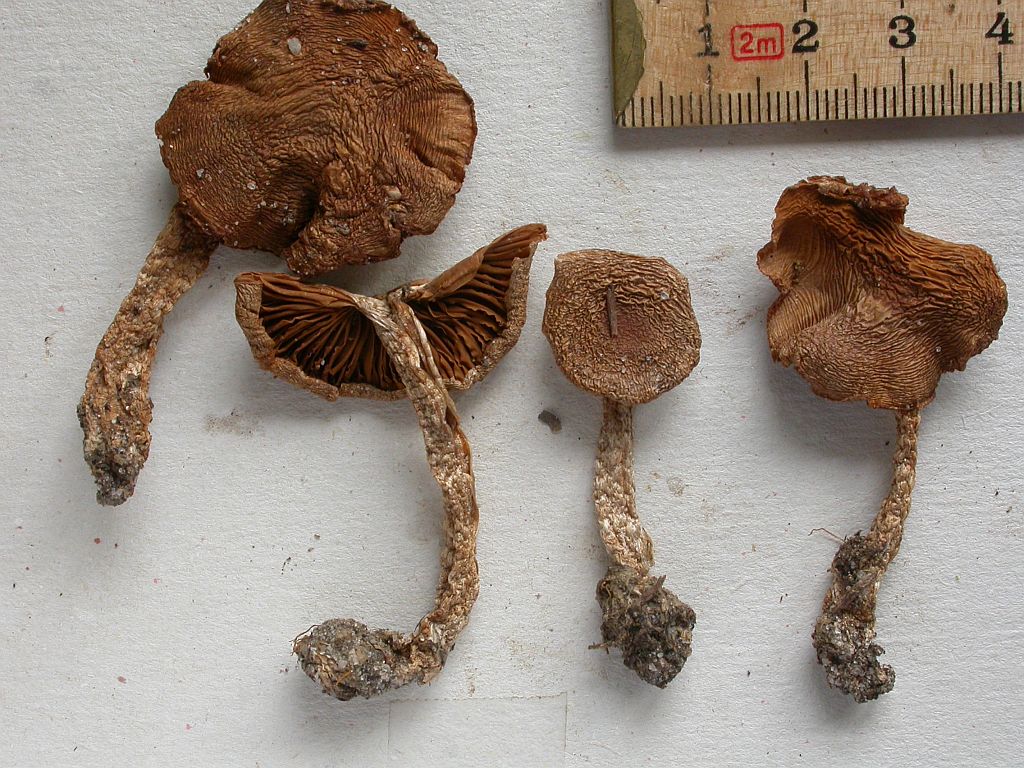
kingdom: Fungi
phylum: Basidiomycota
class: Agaricomycetes
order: Agaricales
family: Cortinariaceae
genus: Cortinarius
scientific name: Cortinarius biveloides
